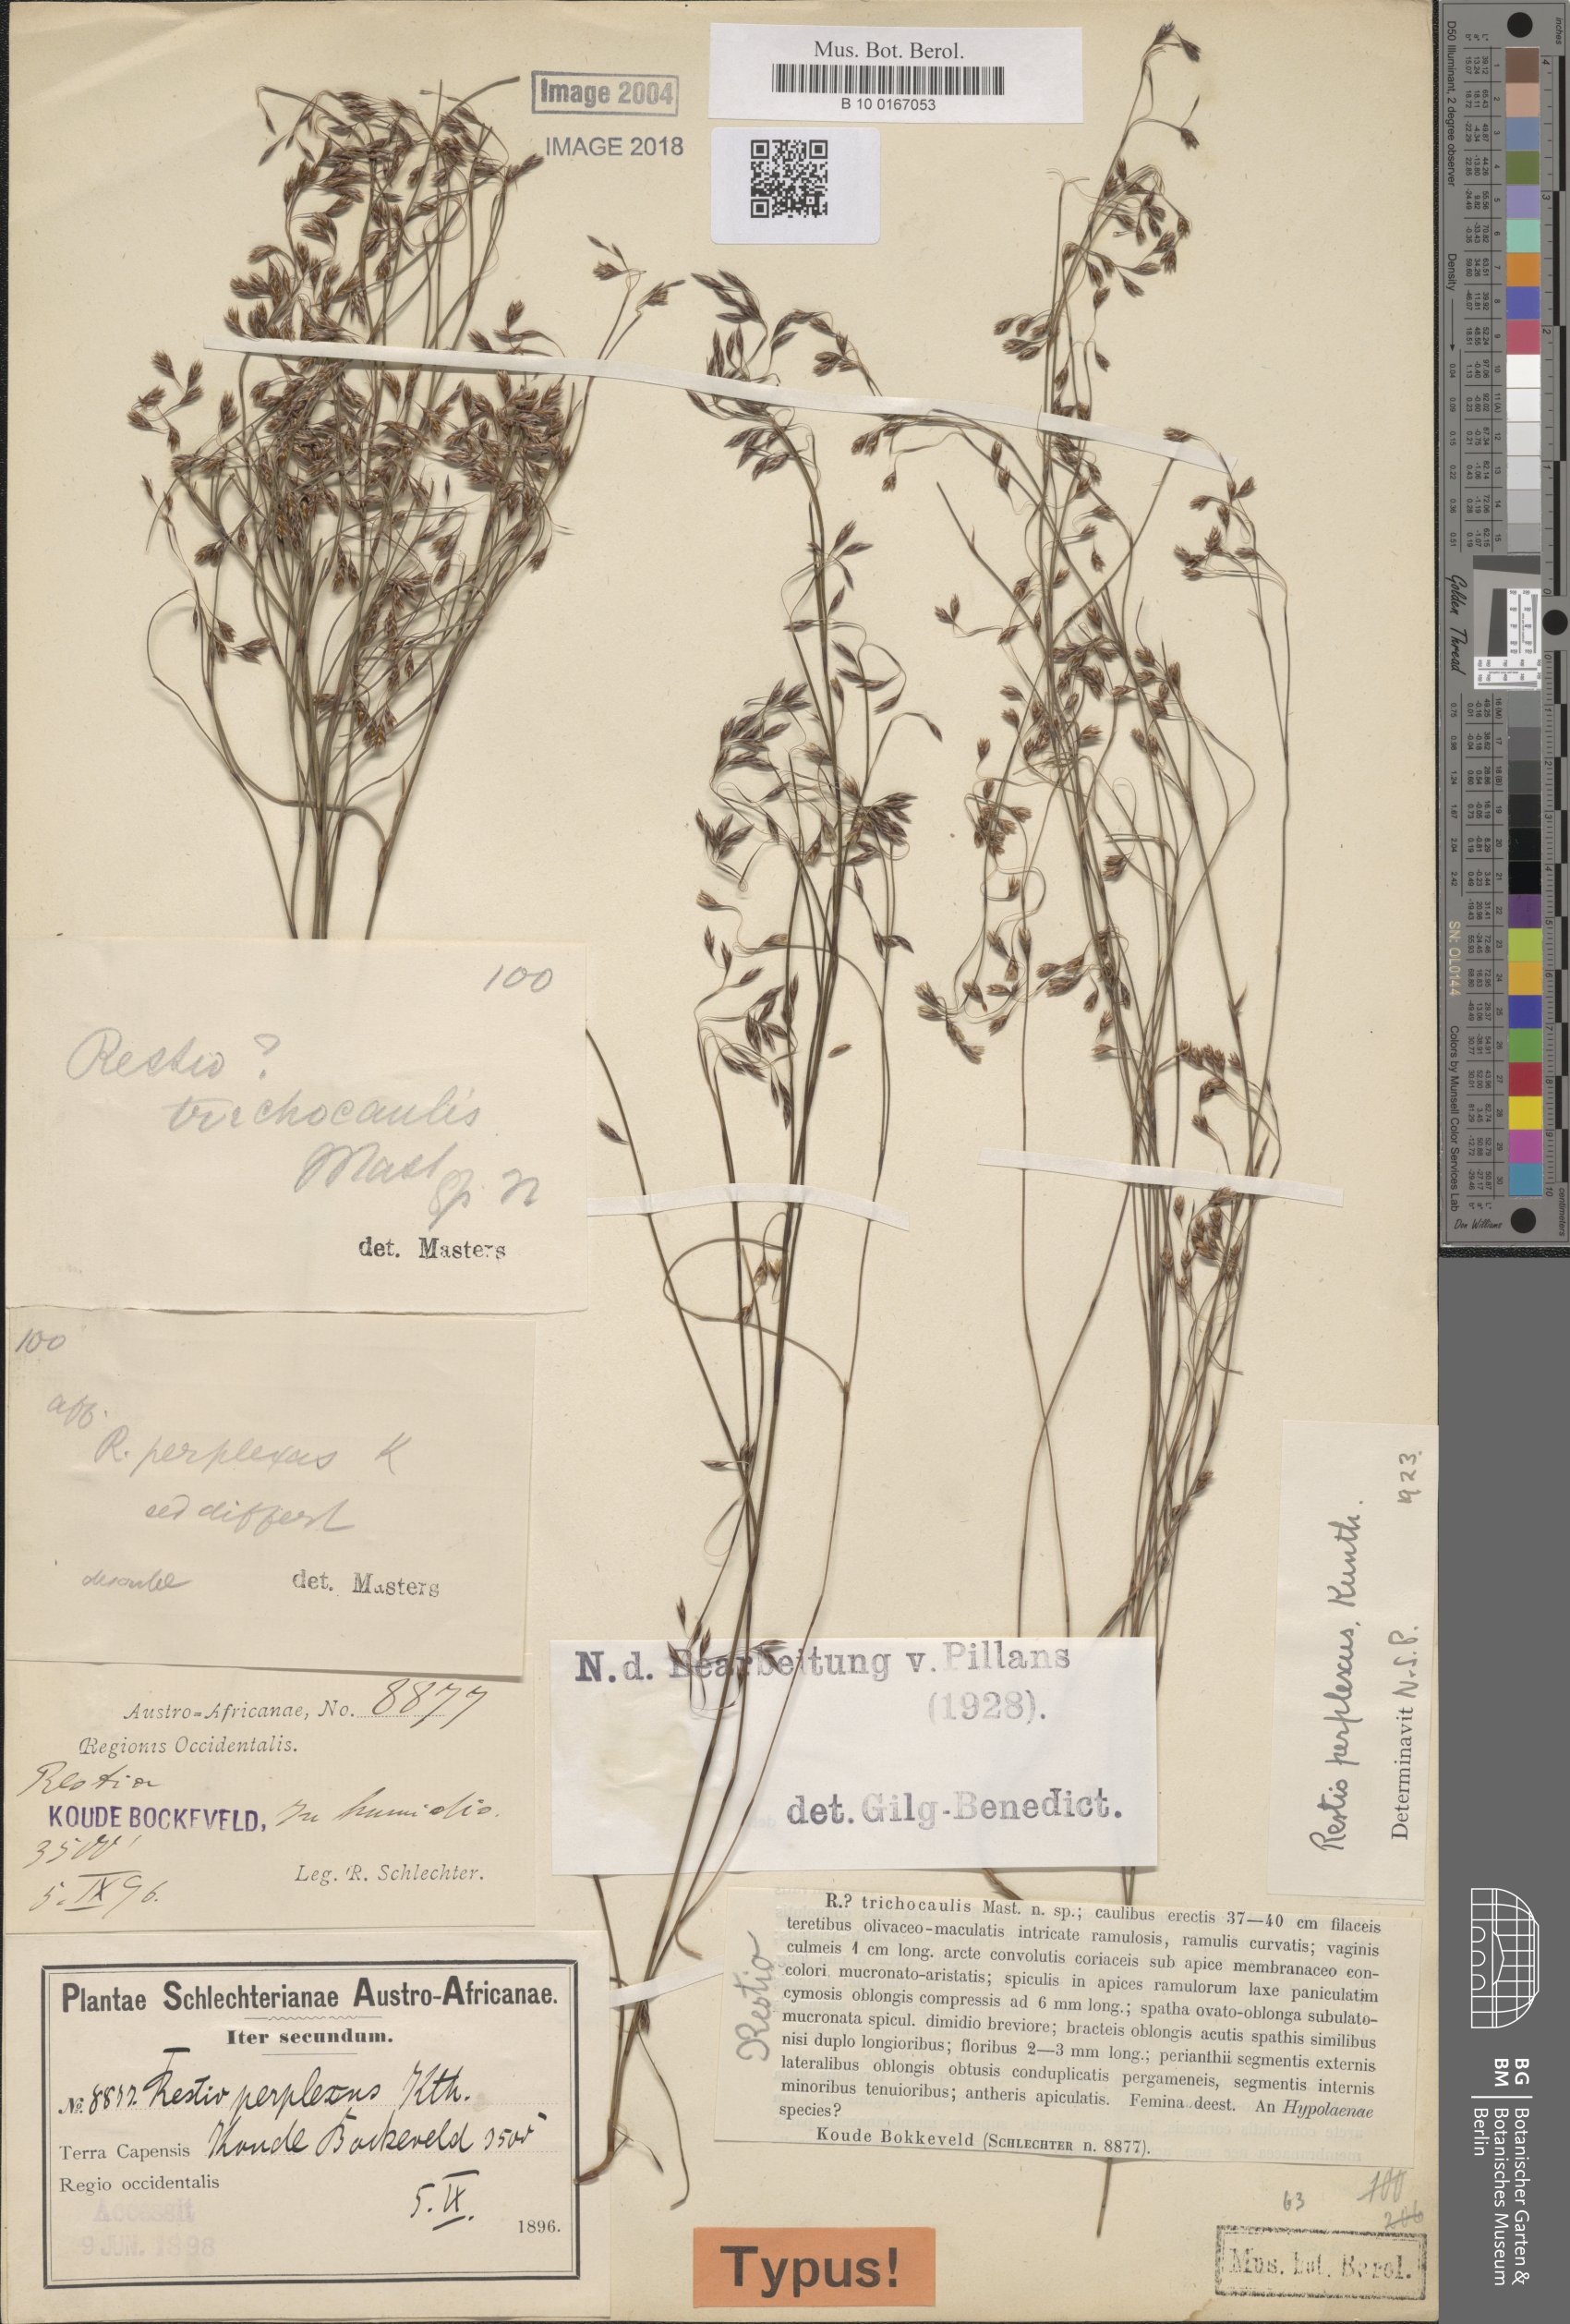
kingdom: Plantae
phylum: Tracheophyta
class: Liliopsida
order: Poales
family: Restionaceae
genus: Restio
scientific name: Restio perplexus
